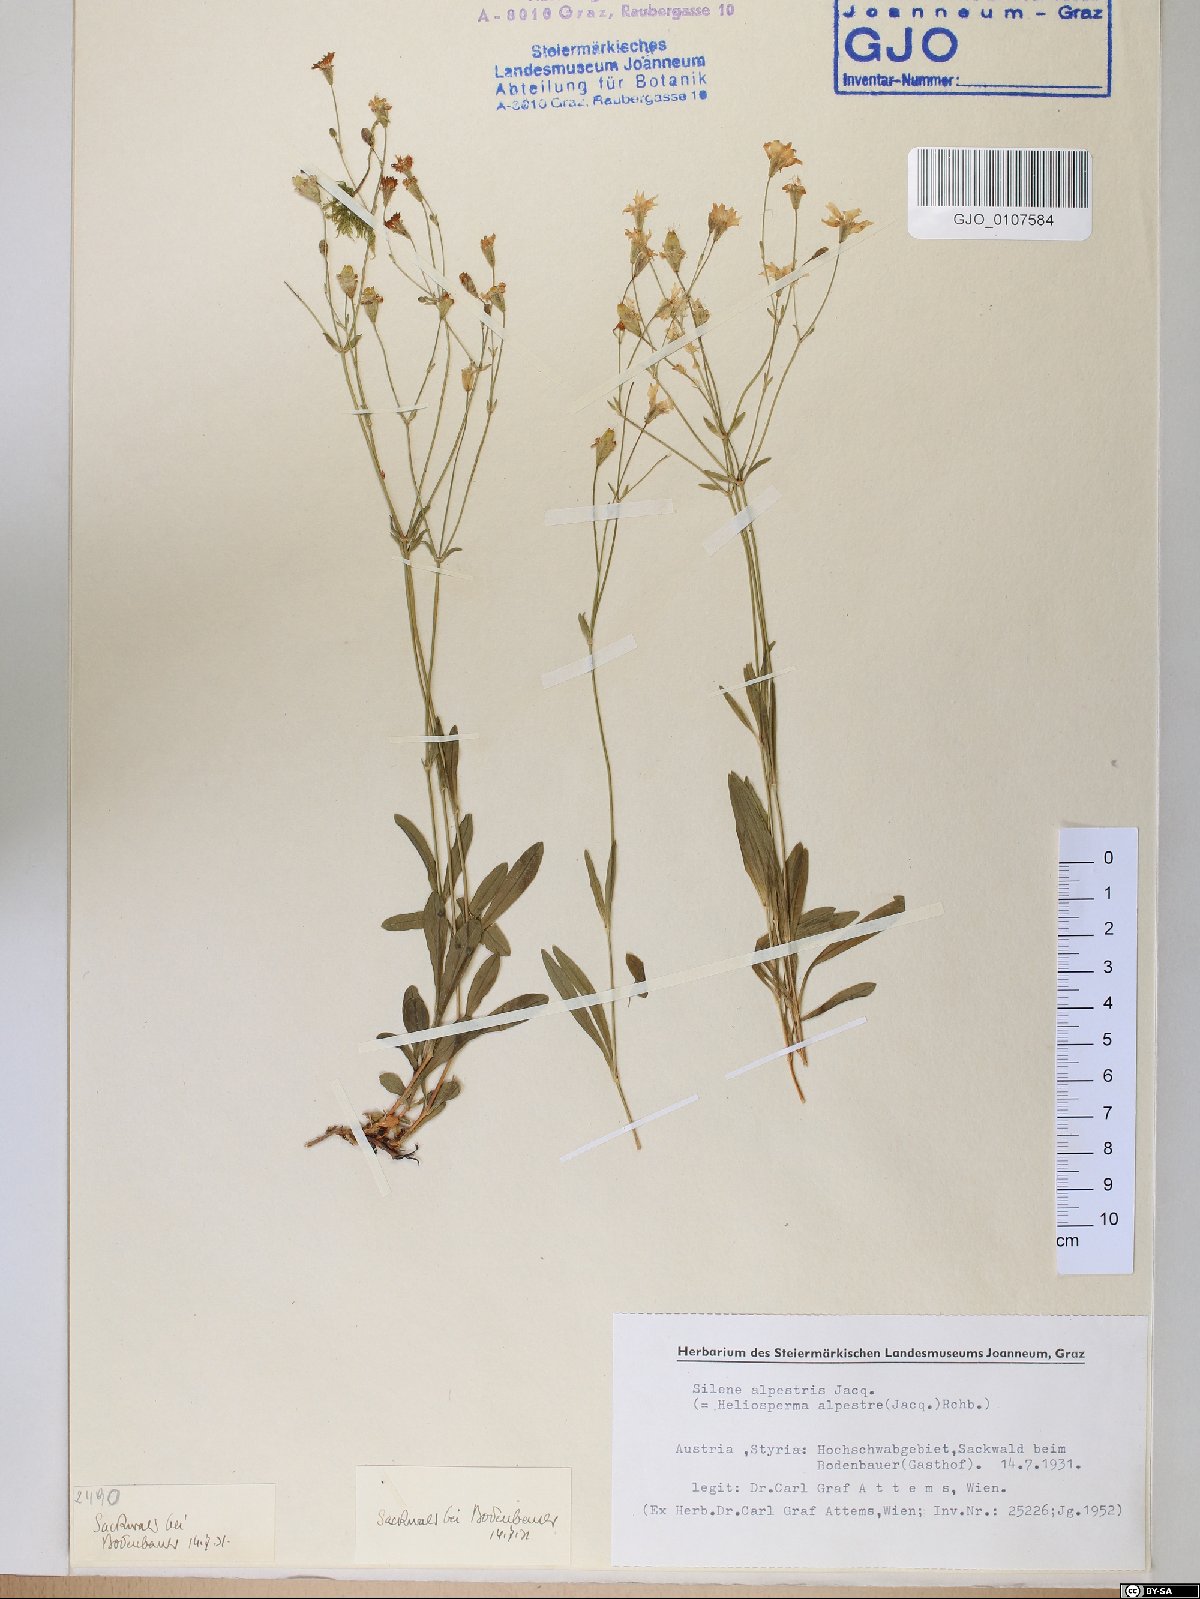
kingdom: Plantae
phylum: Tracheophyta
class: Magnoliopsida
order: Caryophyllales
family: Caryophyllaceae
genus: Heliosperma
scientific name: Heliosperma alpestre
